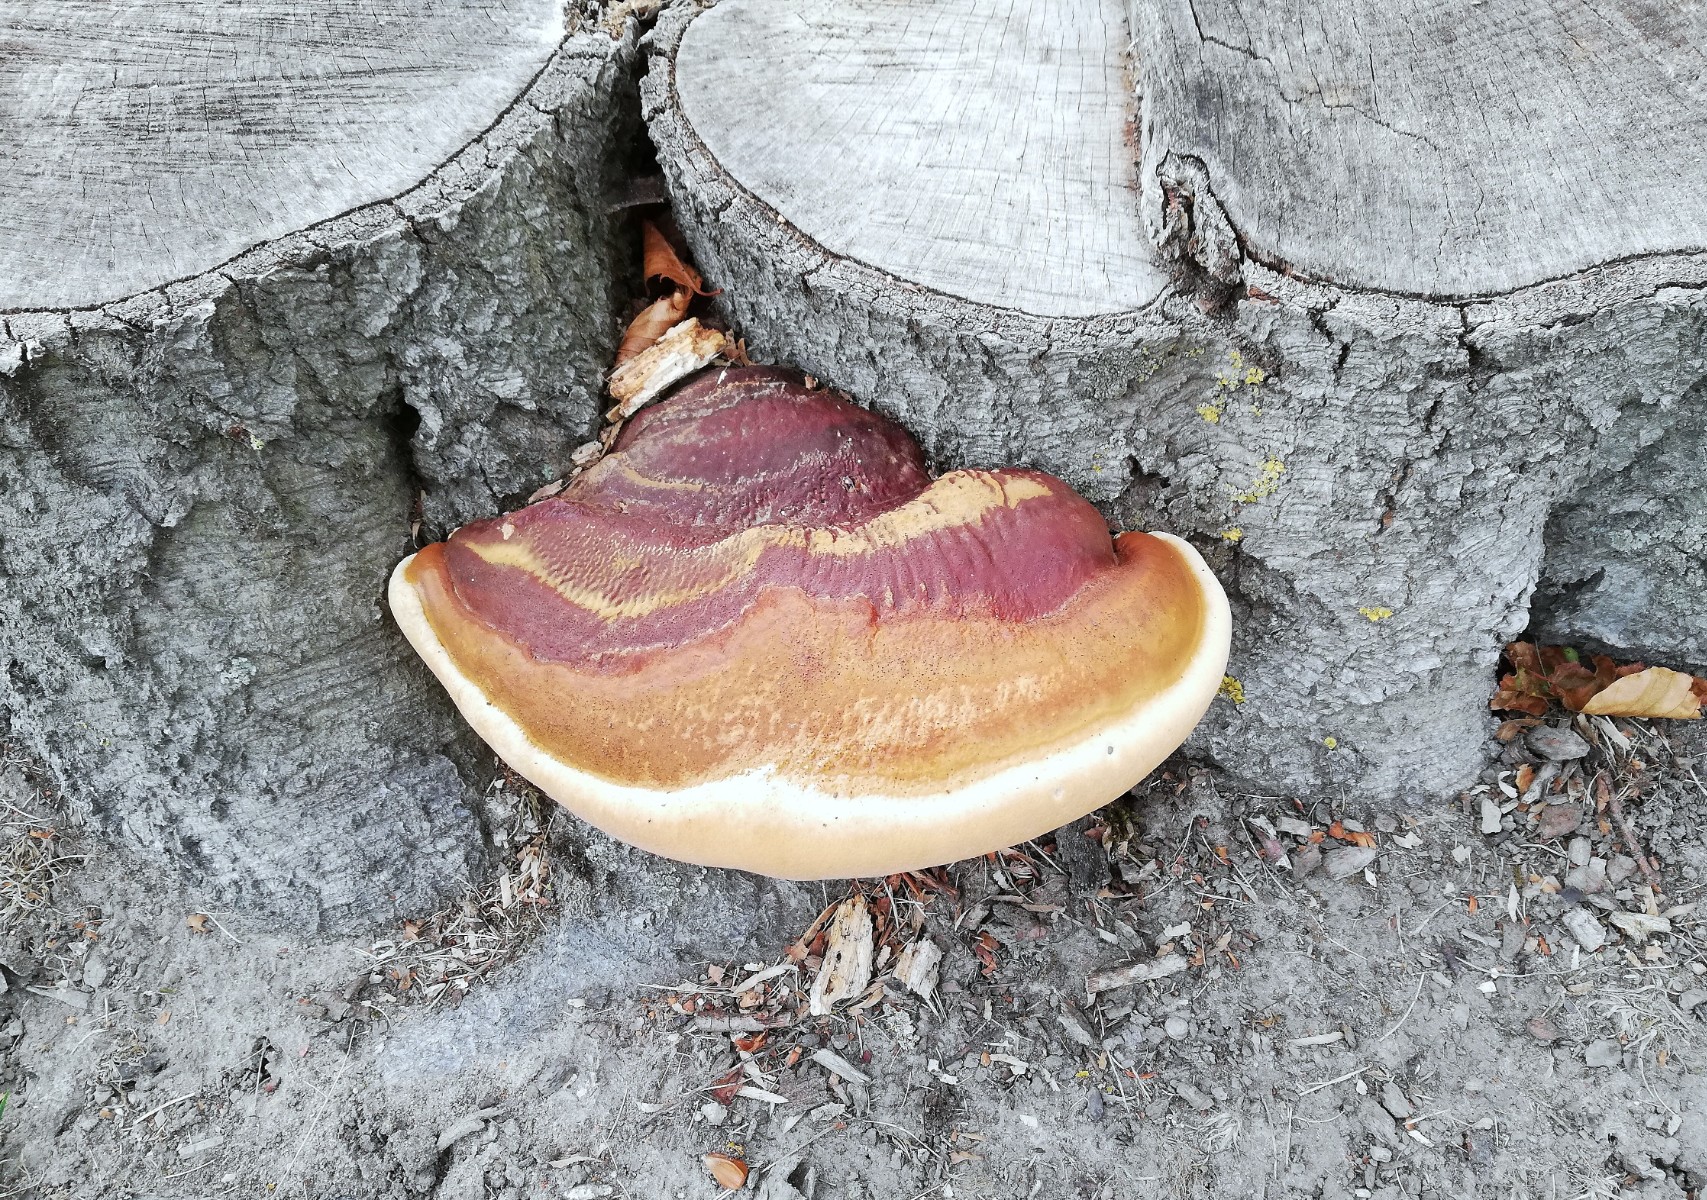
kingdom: Fungi
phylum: Basidiomycota
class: Agaricomycetes
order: Polyporales
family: Polyporaceae
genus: Ganoderma
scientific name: Ganoderma resinaceum
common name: gyldenbrun lakporesvamp
